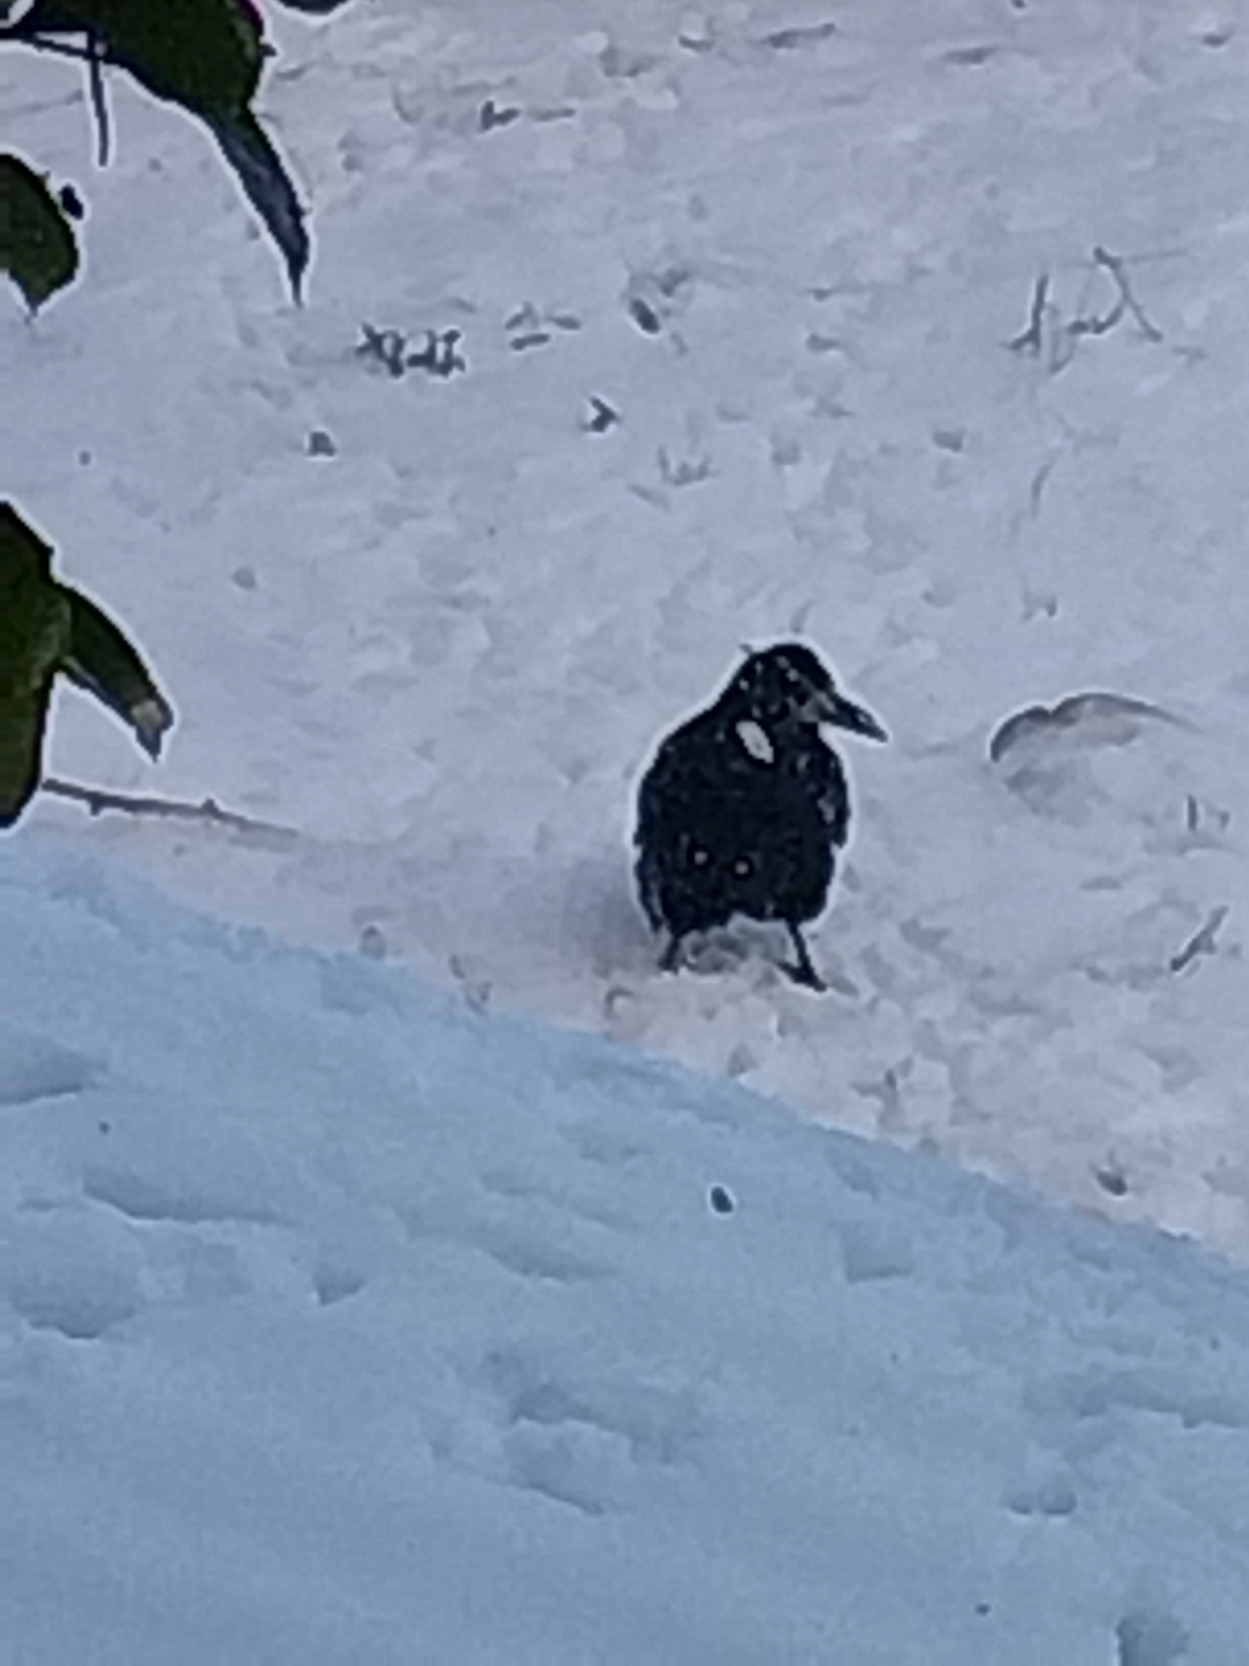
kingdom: Animalia
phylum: Chordata
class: Aves
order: Passeriformes
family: Corvidae
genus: Corvus
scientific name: Corvus frugilegus
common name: Råge
